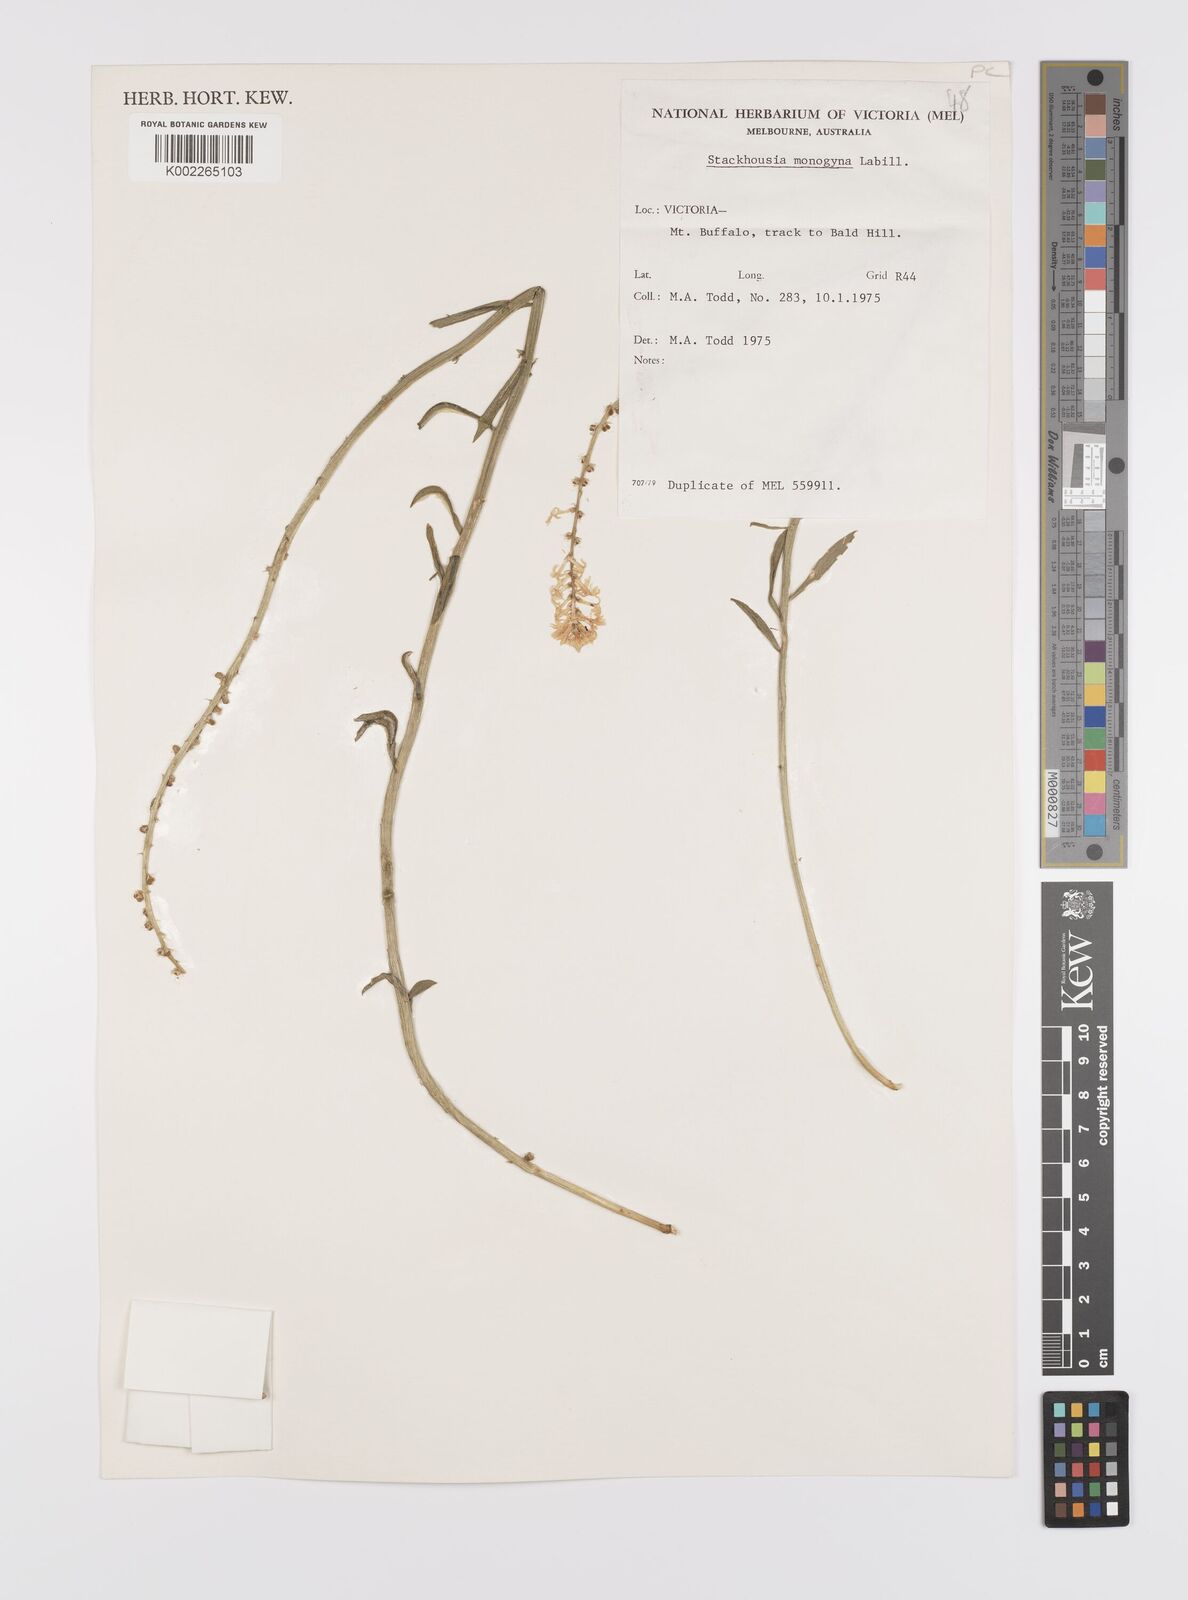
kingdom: Plantae
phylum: Tracheophyta
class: Magnoliopsida
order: Celastrales
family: Celastraceae
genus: Stackhousia
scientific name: Stackhousia monogyna
